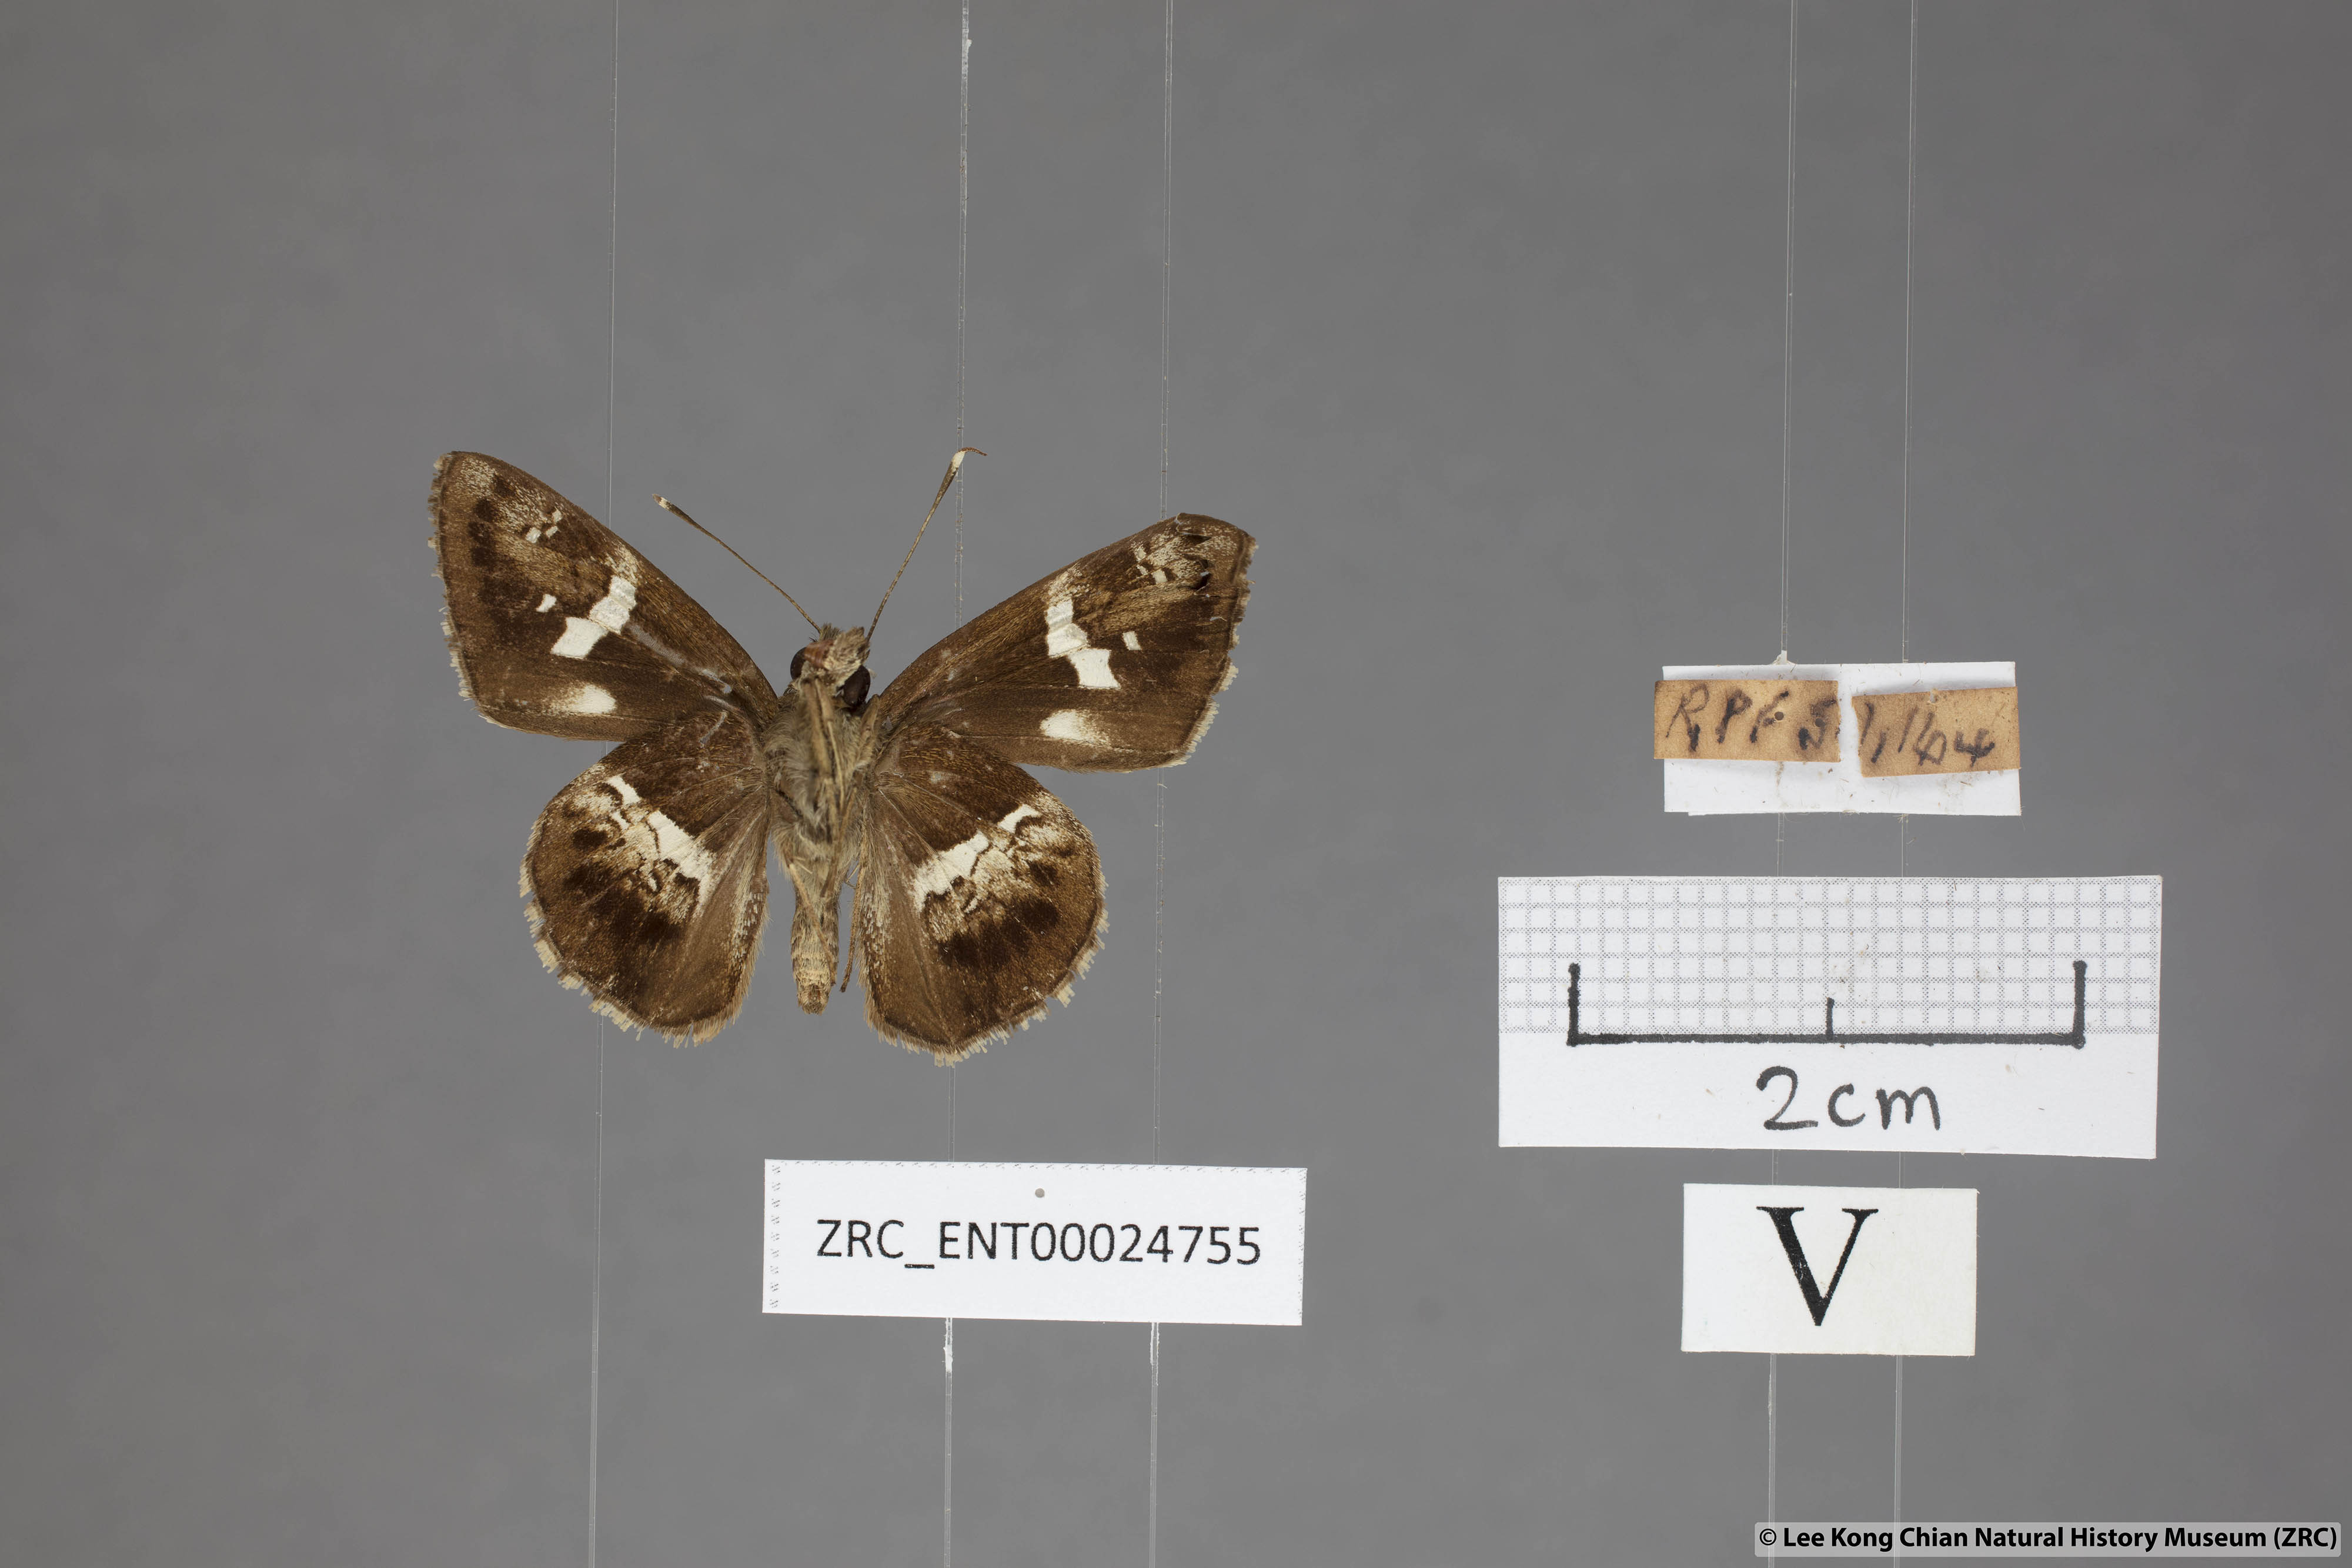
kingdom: Animalia
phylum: Arthropoda
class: Insecta
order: Lepidoptera
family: Hesperiidae
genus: Hyarotis
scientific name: Hyarotis adrastus
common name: Tree flitter
